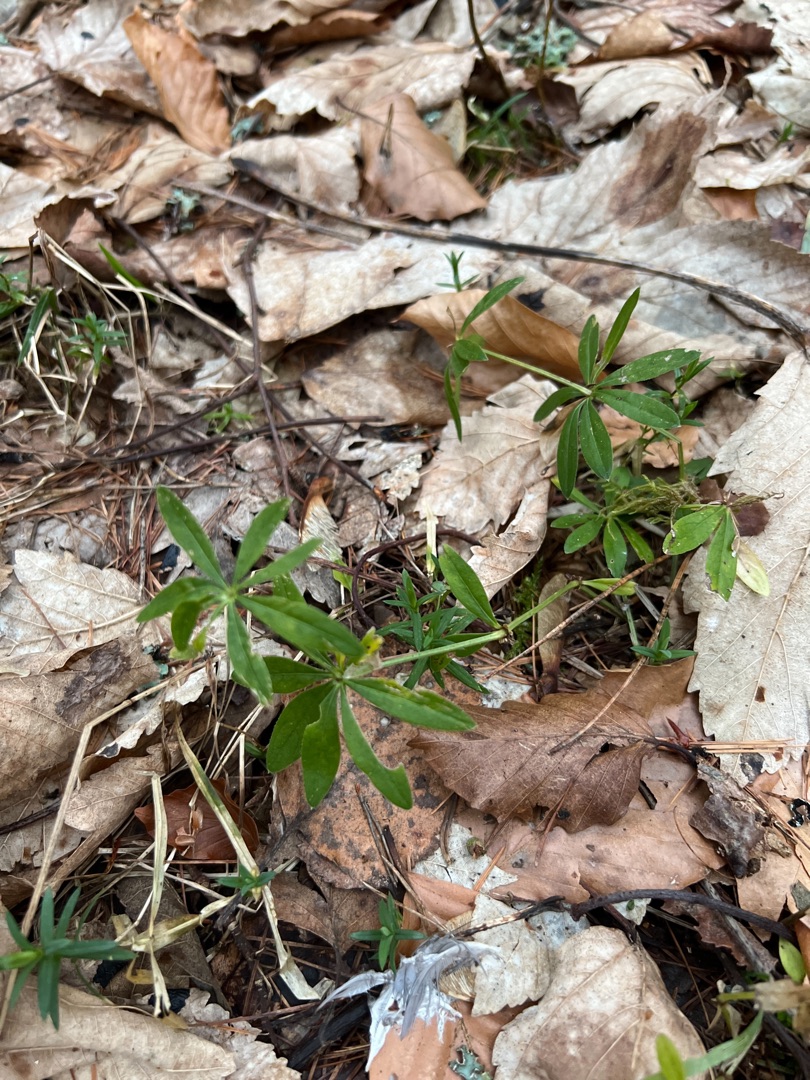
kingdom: Plantae
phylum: Tracheophyta
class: Magnoliopsida
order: Gentianales
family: Rubiaceae
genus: Galium
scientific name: Galium odoratum
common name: Skovmærke
